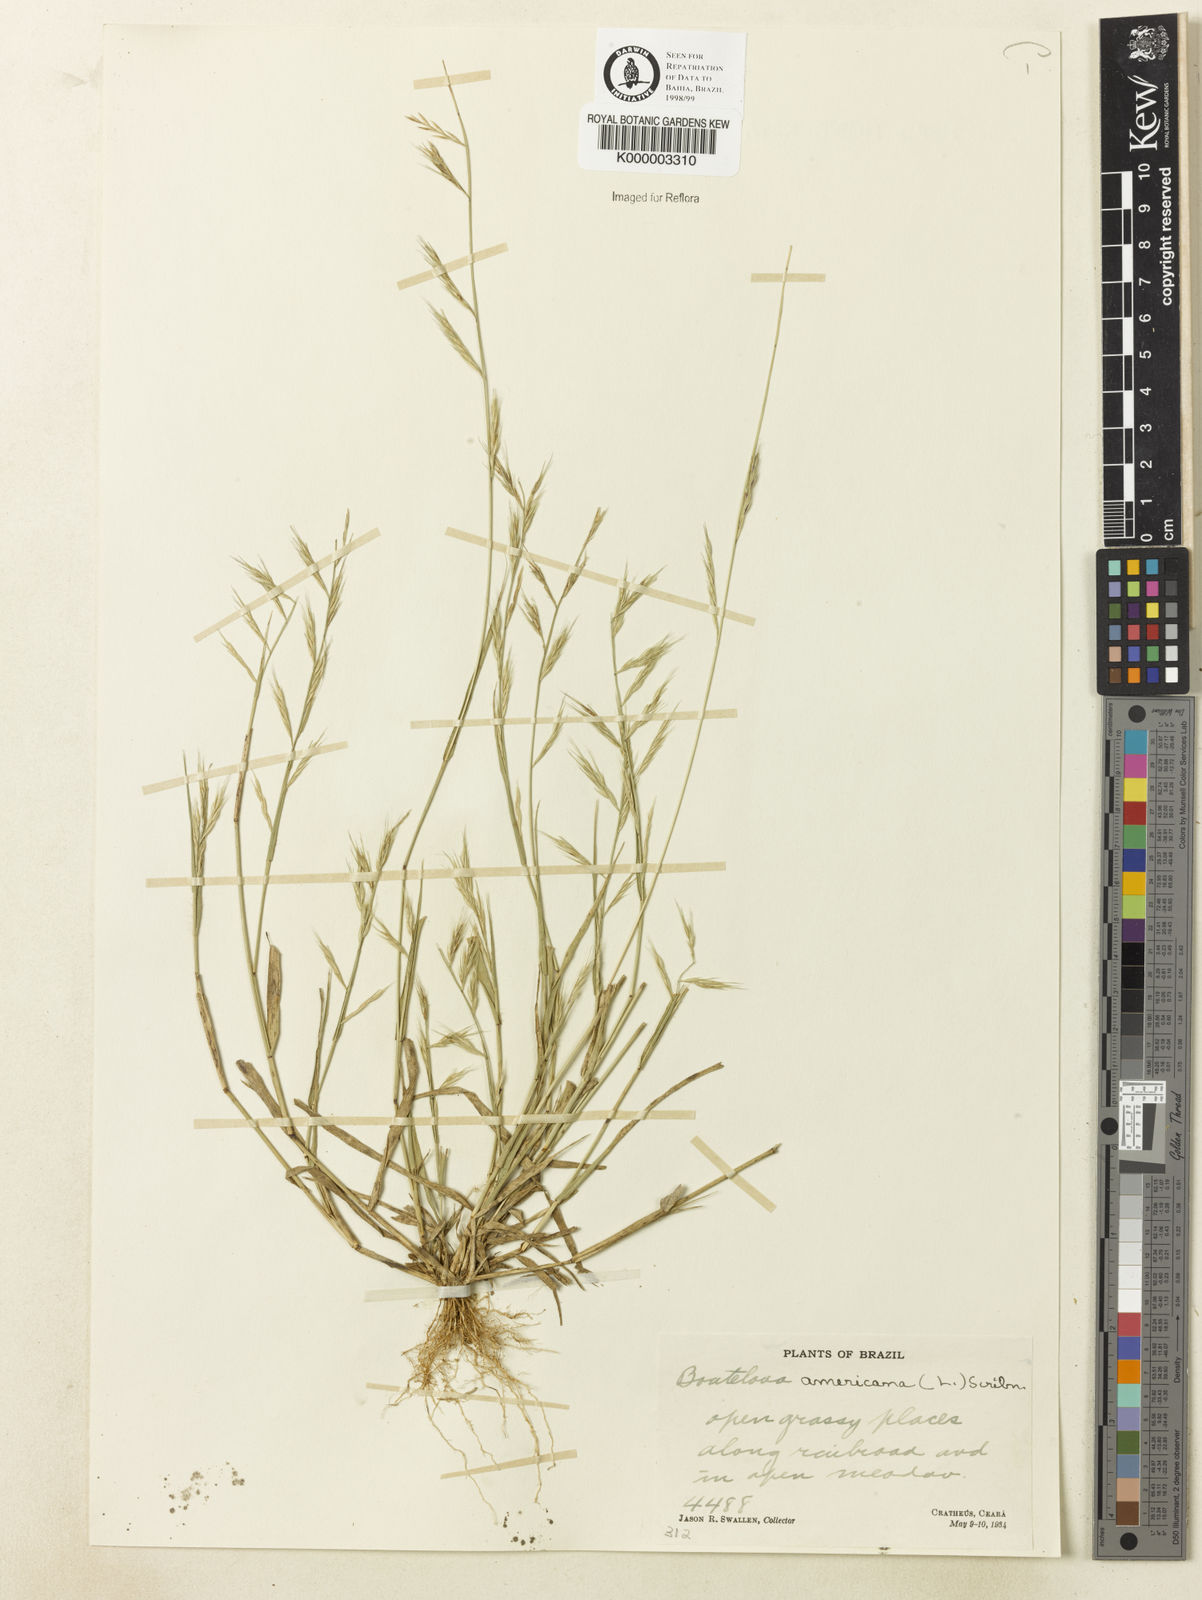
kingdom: Plantae
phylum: Tracheophyta
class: Liliopsida
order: Poales
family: Poaceae
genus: Bouteloua
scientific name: Bouteloua americana
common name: Mule grass
